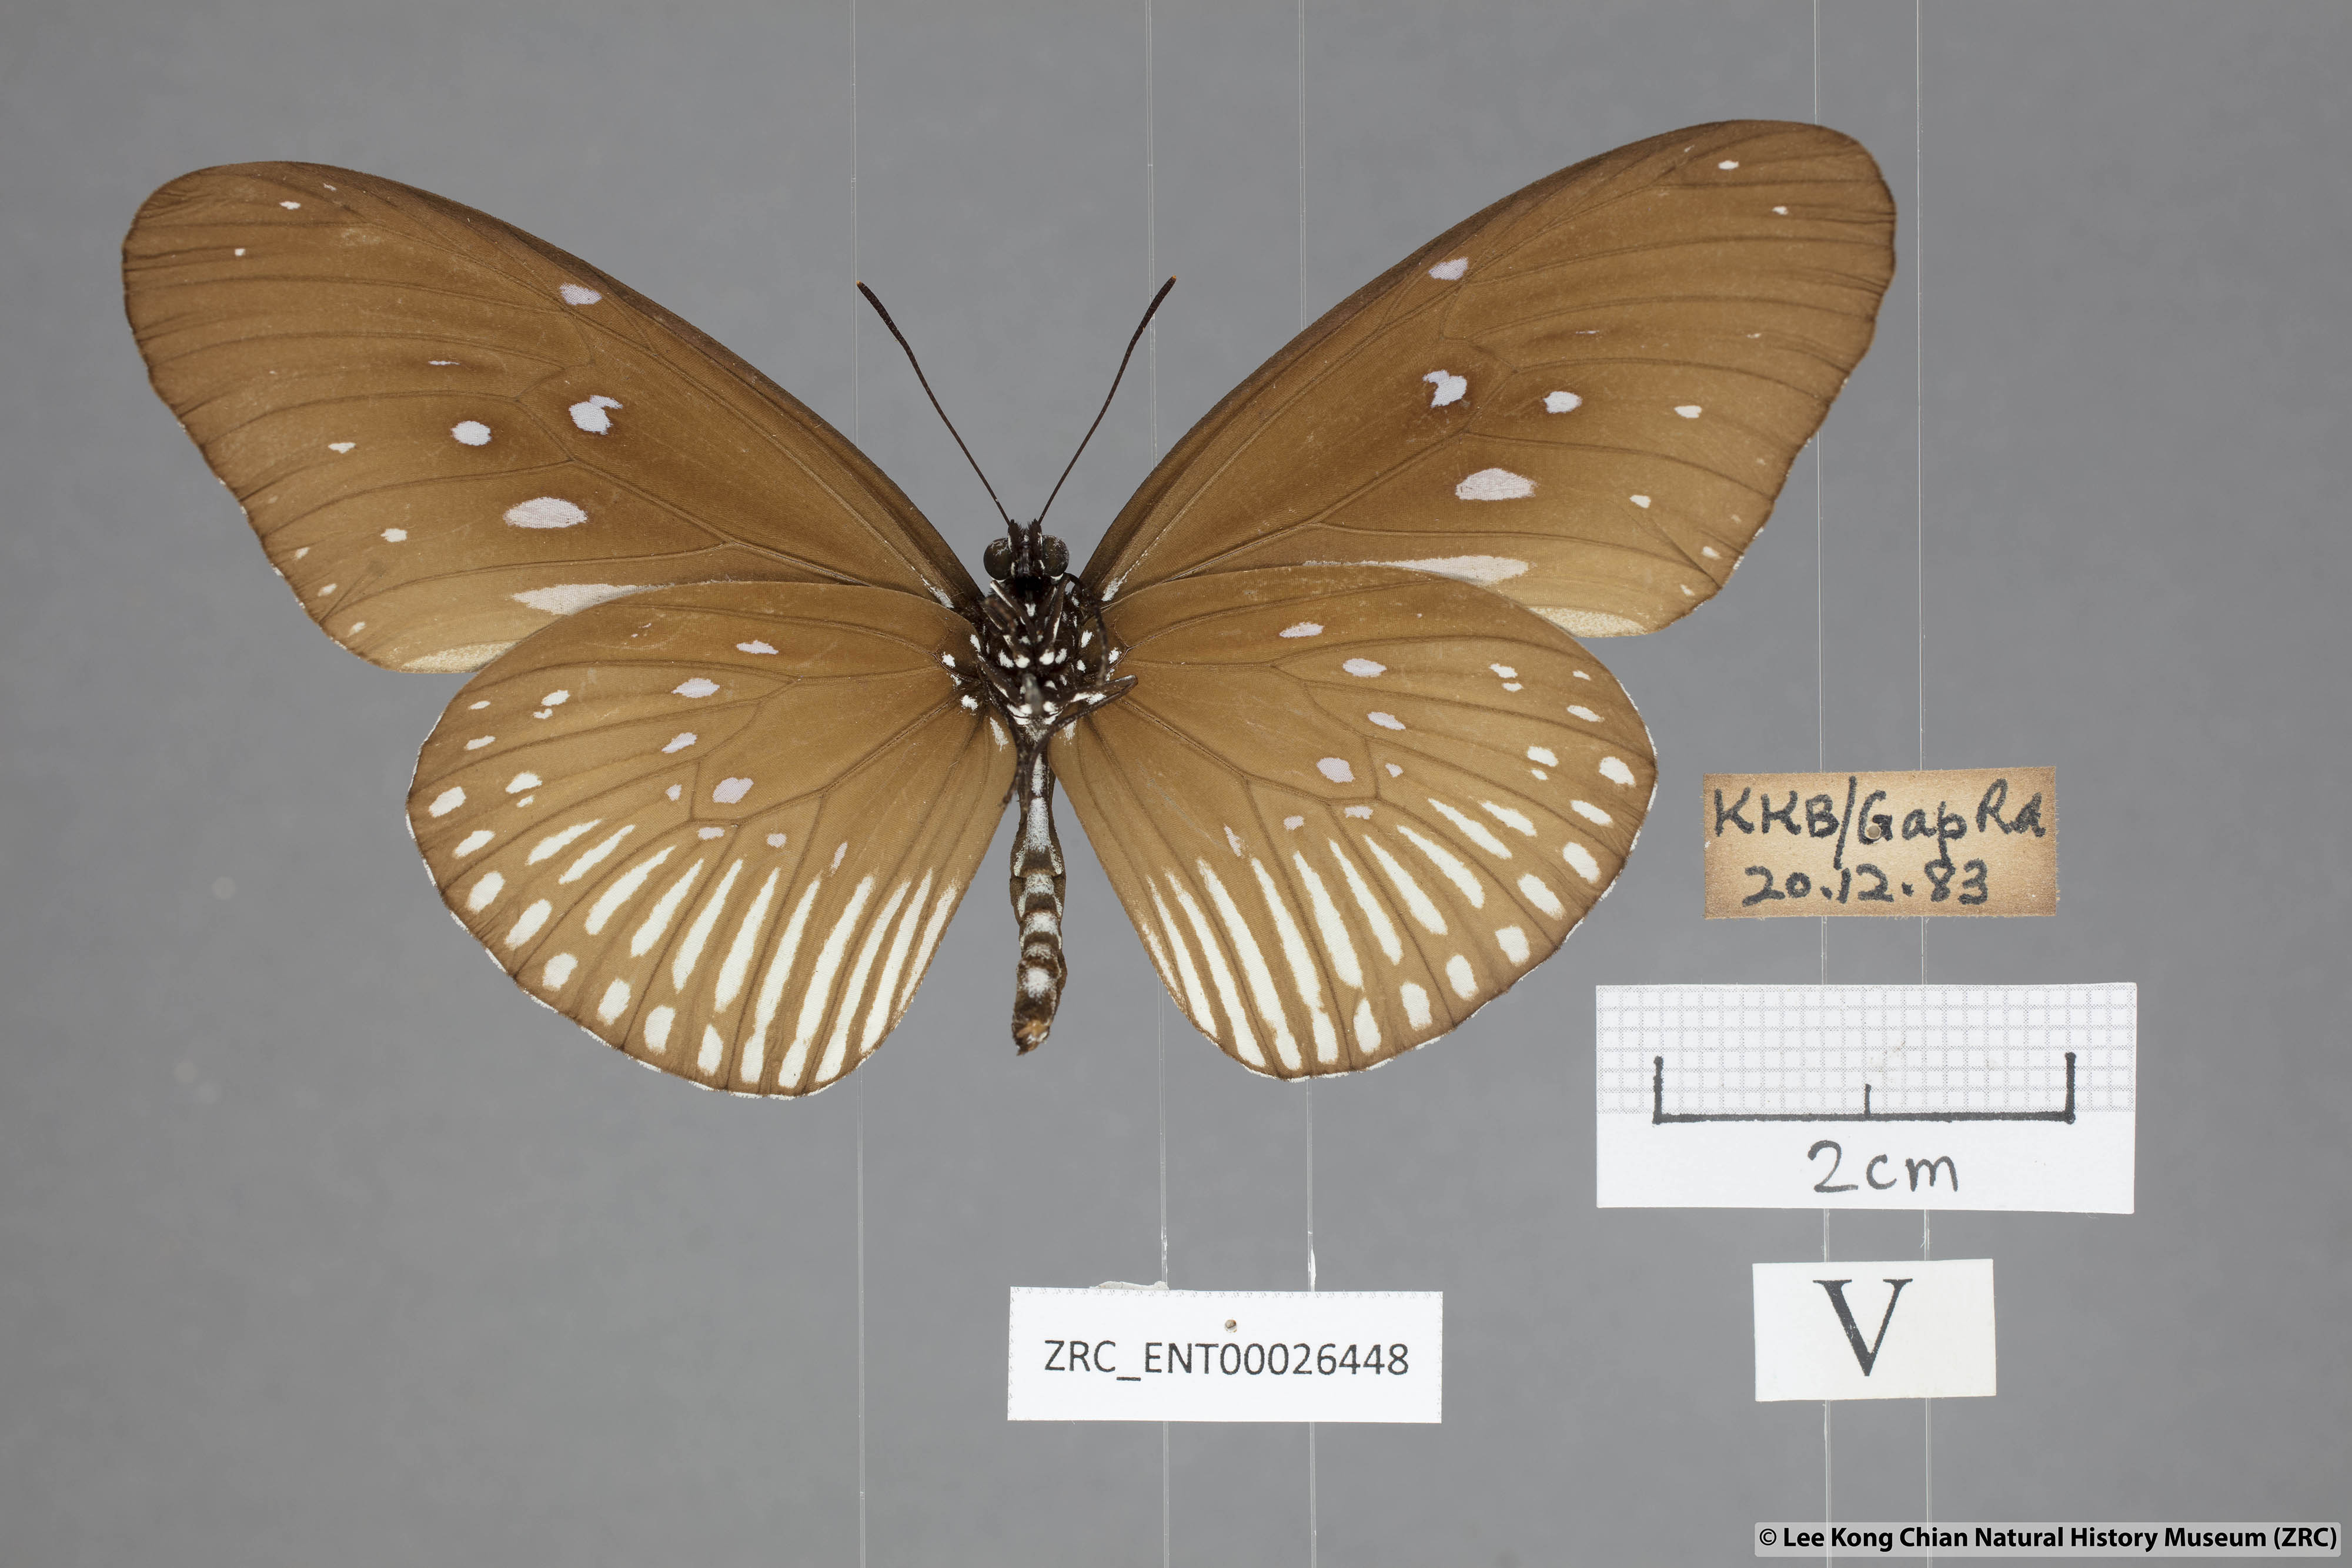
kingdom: Animalia
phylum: Arthropoda
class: Insecta
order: Lepidoptera
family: Nymphalidae
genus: Euploea
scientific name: Euploea eyndhovii
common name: Striped black crow butterfly
